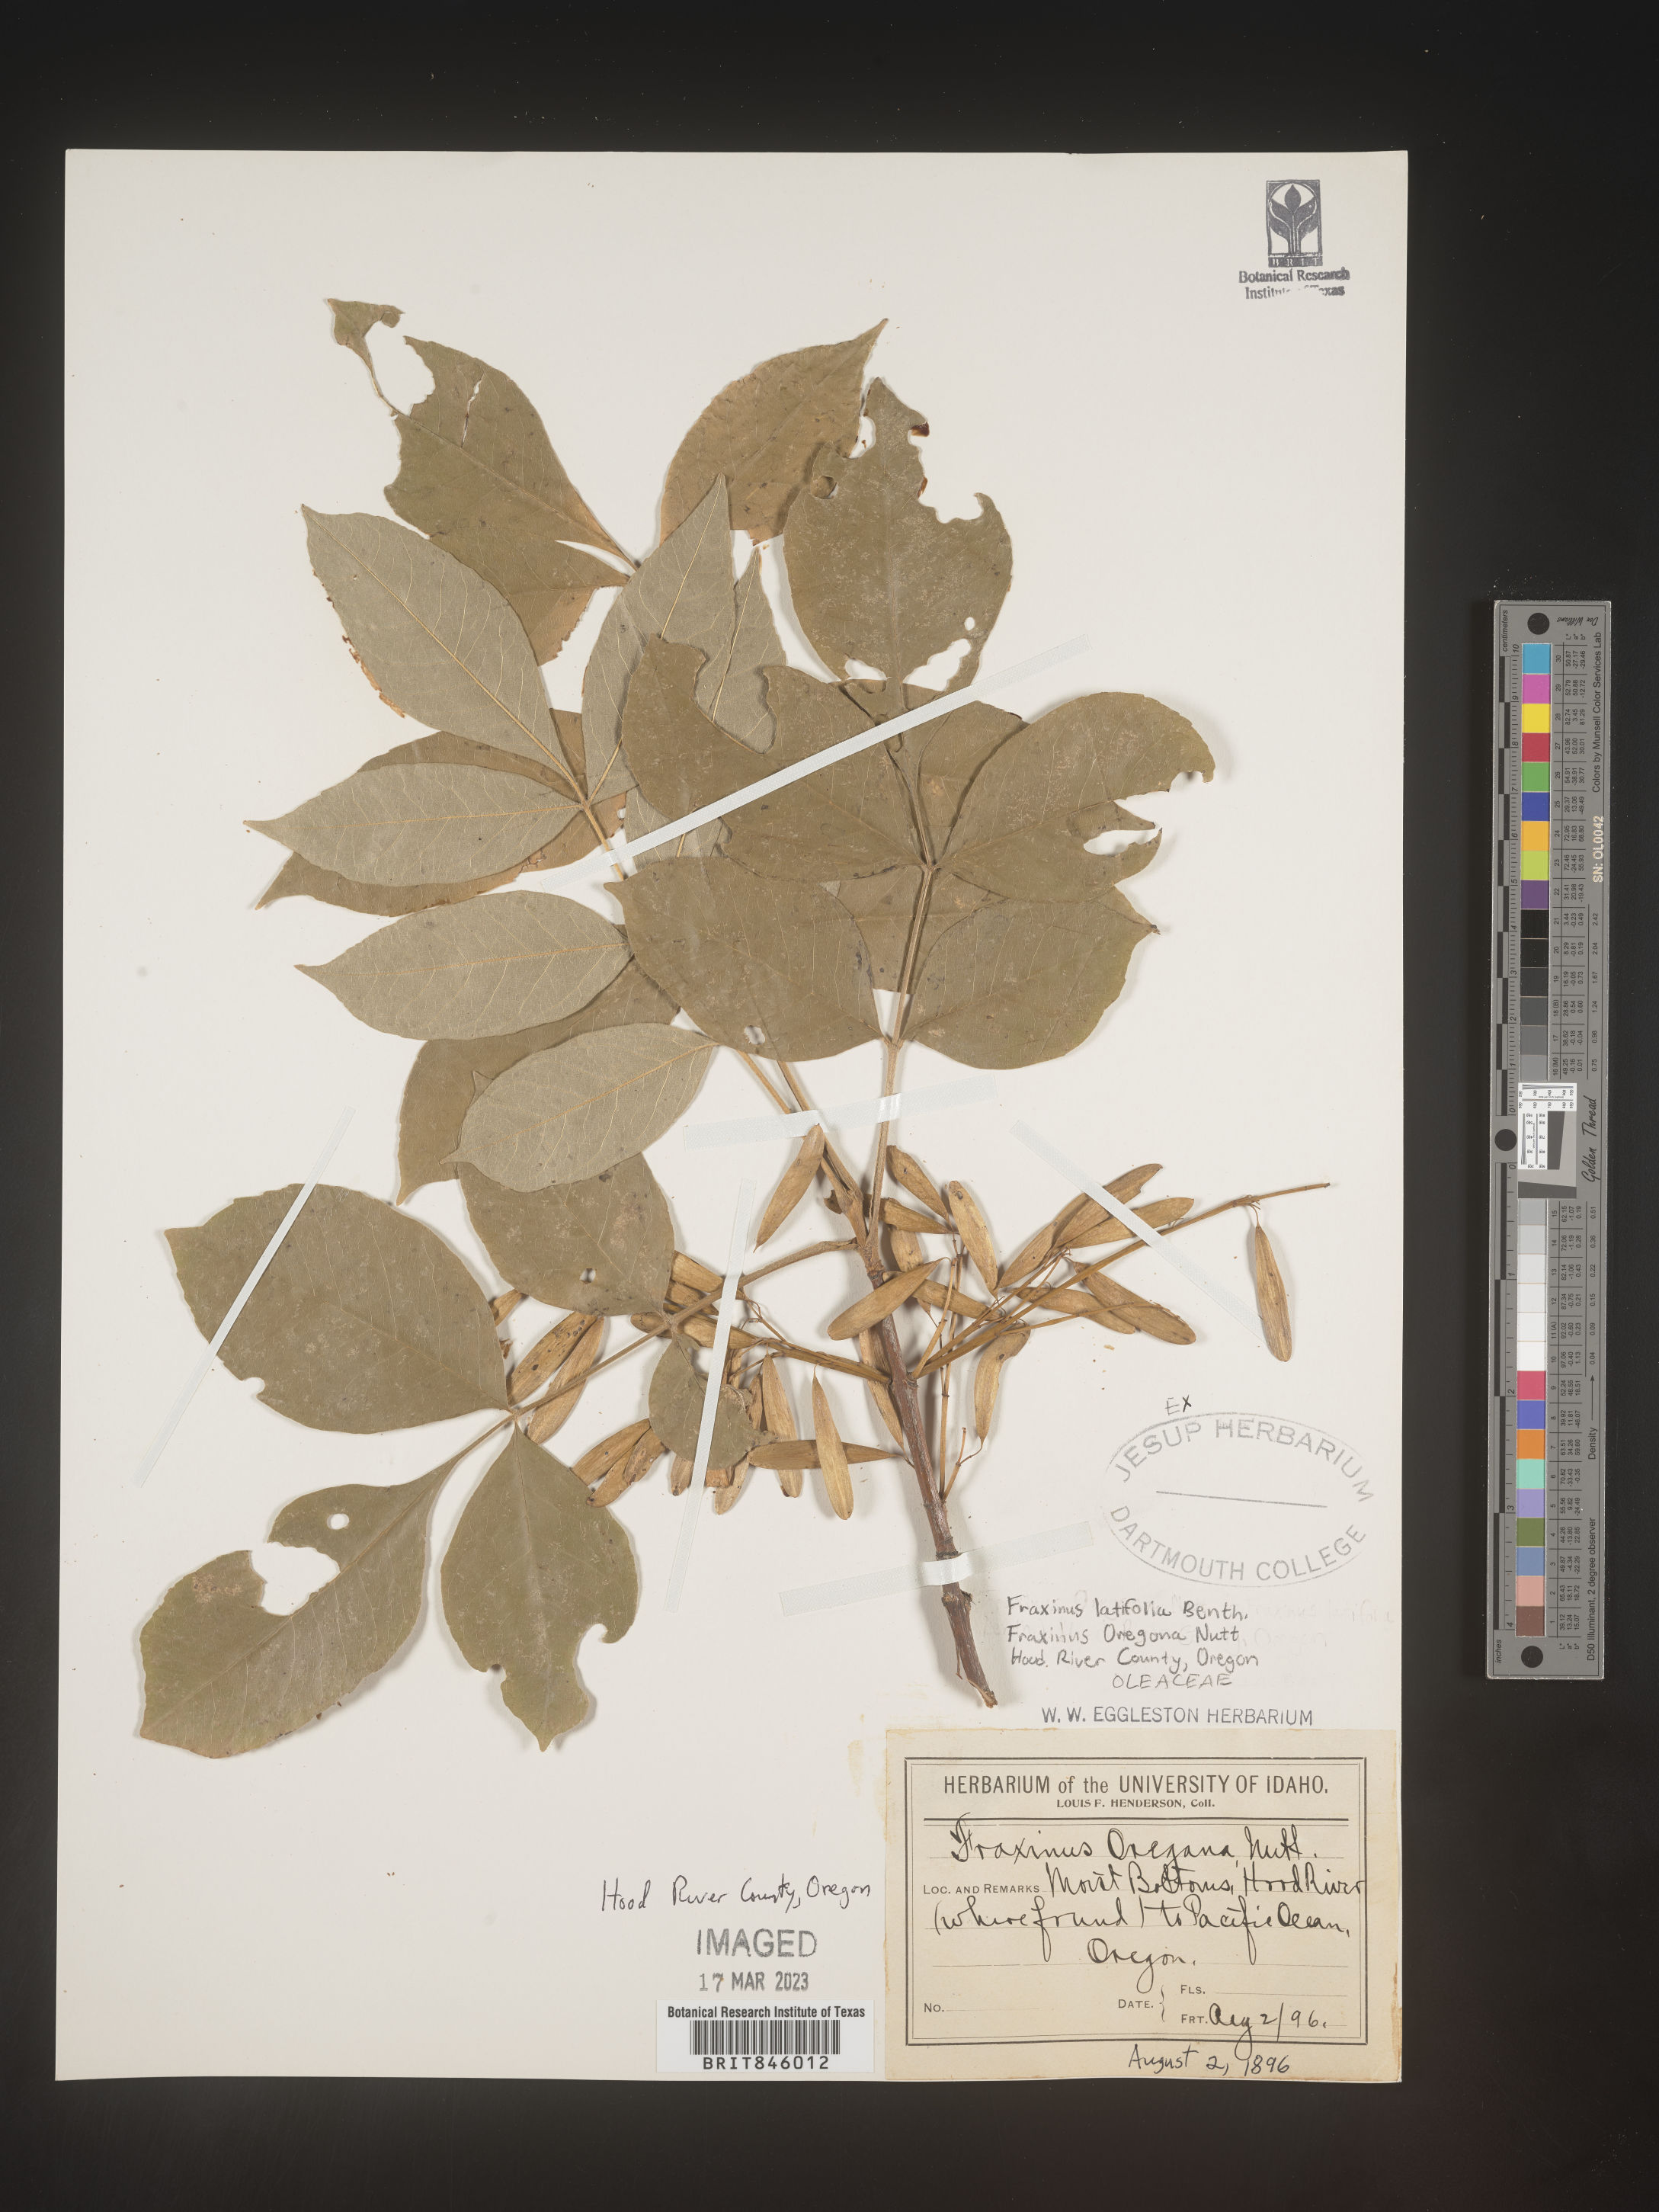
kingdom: Plantae
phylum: Tracheophyta
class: Magnoliopsida
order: Lamiales
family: Oleaceae
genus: Fraxinus
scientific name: Fraxinus latifolia
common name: Oregon ash
